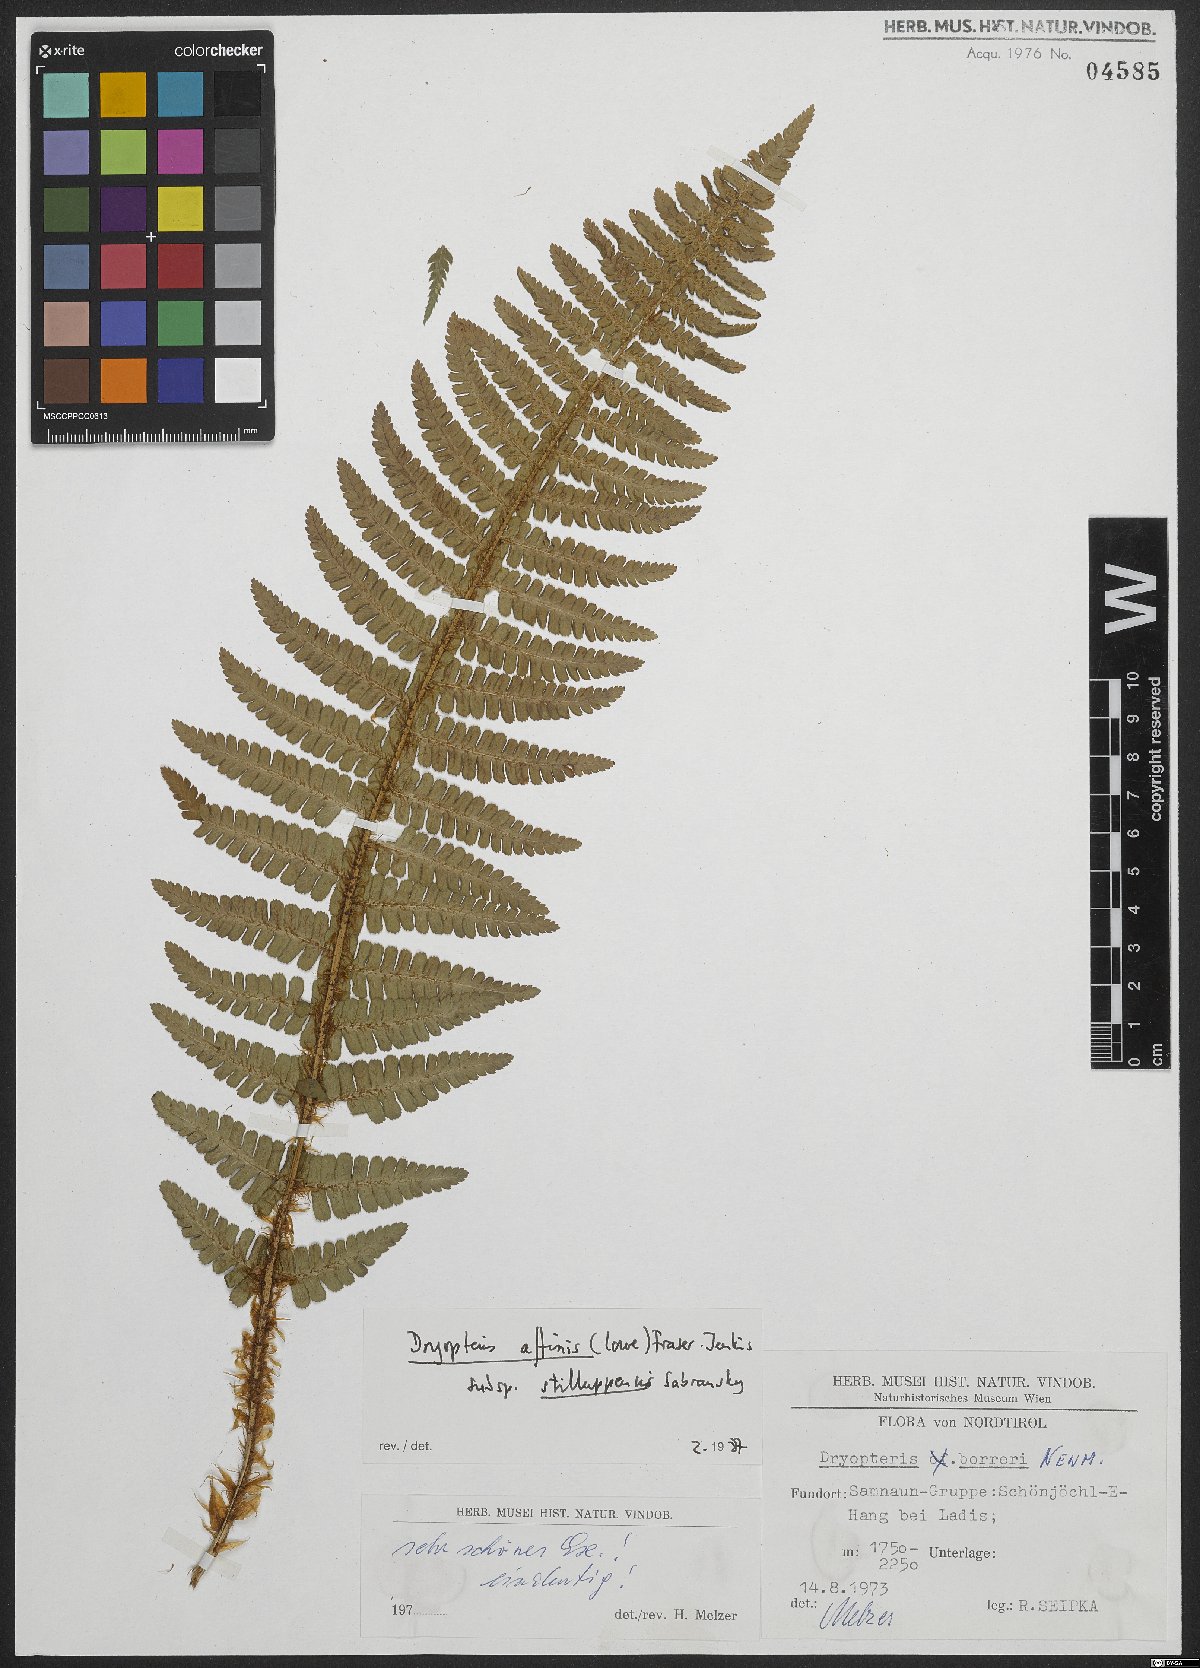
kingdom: Plantae
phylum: Tracheophyta
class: Polypodiopsida
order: Polypodiales
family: Dryopteridaceae
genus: Dryopteris
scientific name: Dryopteris borreri
